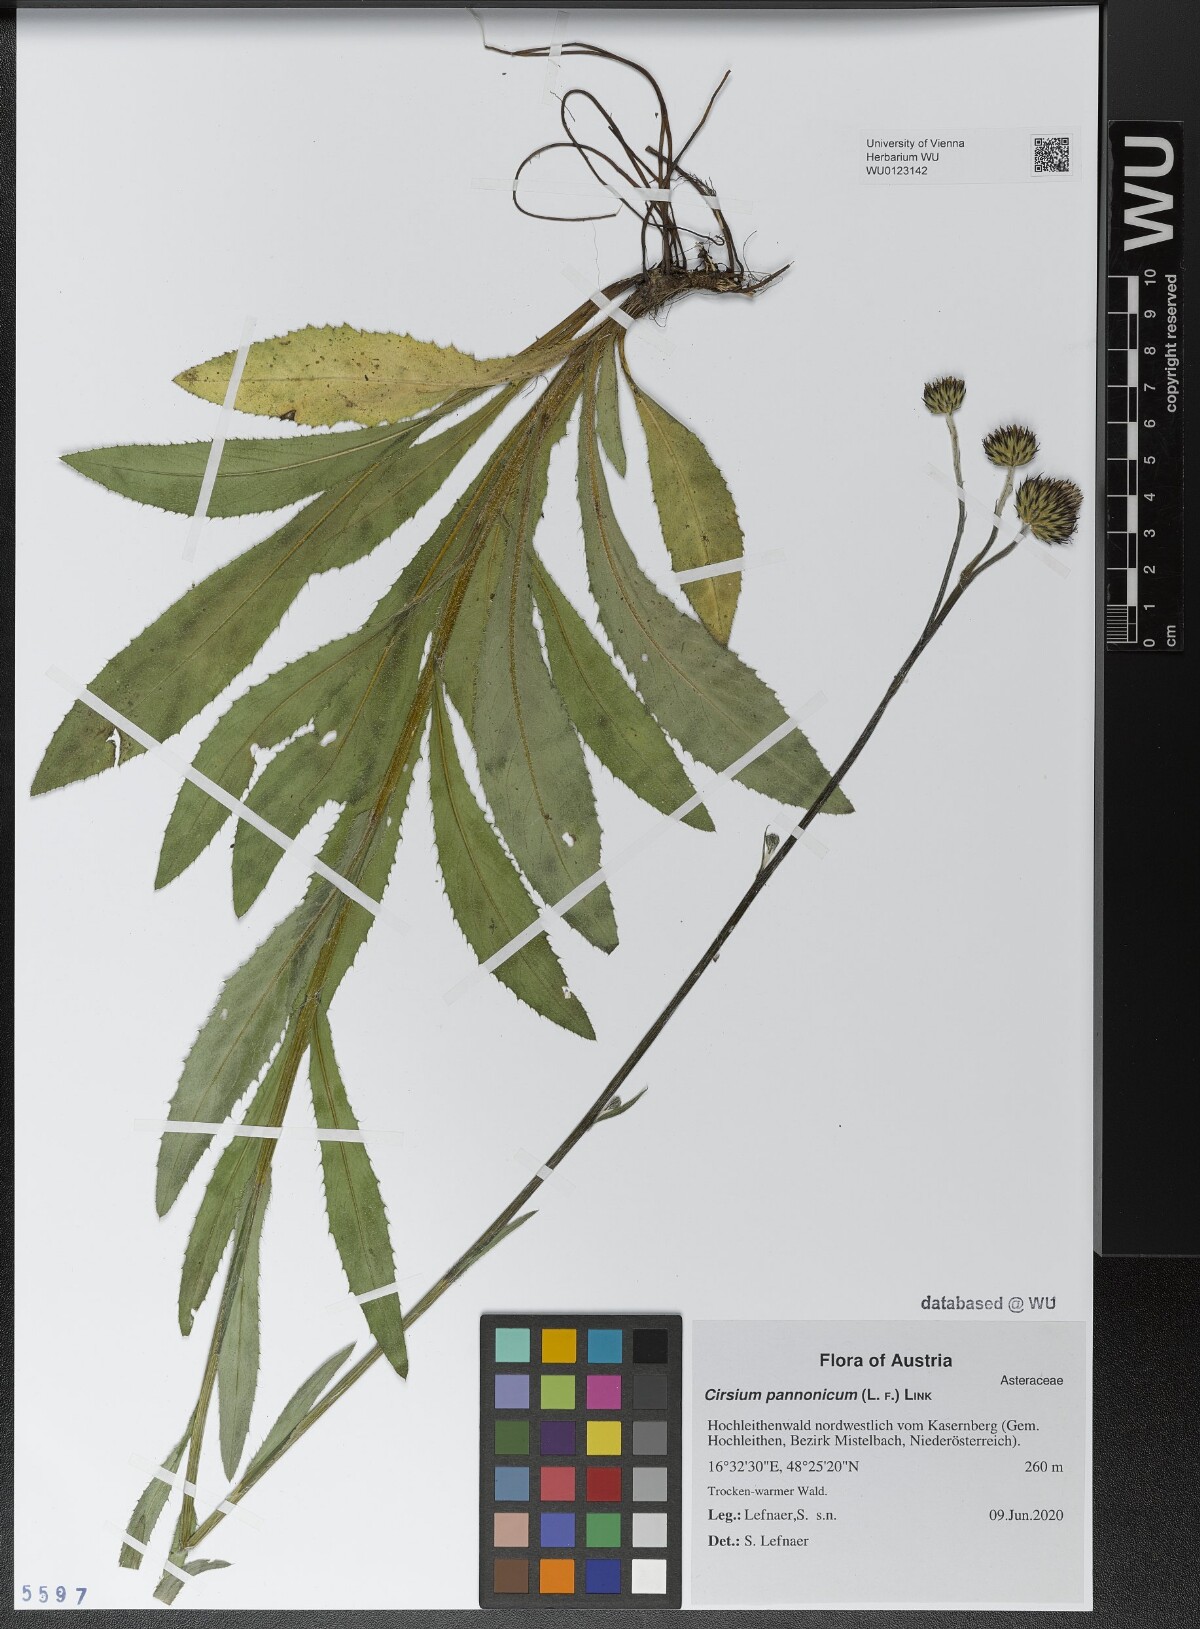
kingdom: Plantae
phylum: Tracheophyta
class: Magnoliopsida
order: Asterales
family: Asteraceae
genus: Cirsium
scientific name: Cirsium pannonicum
